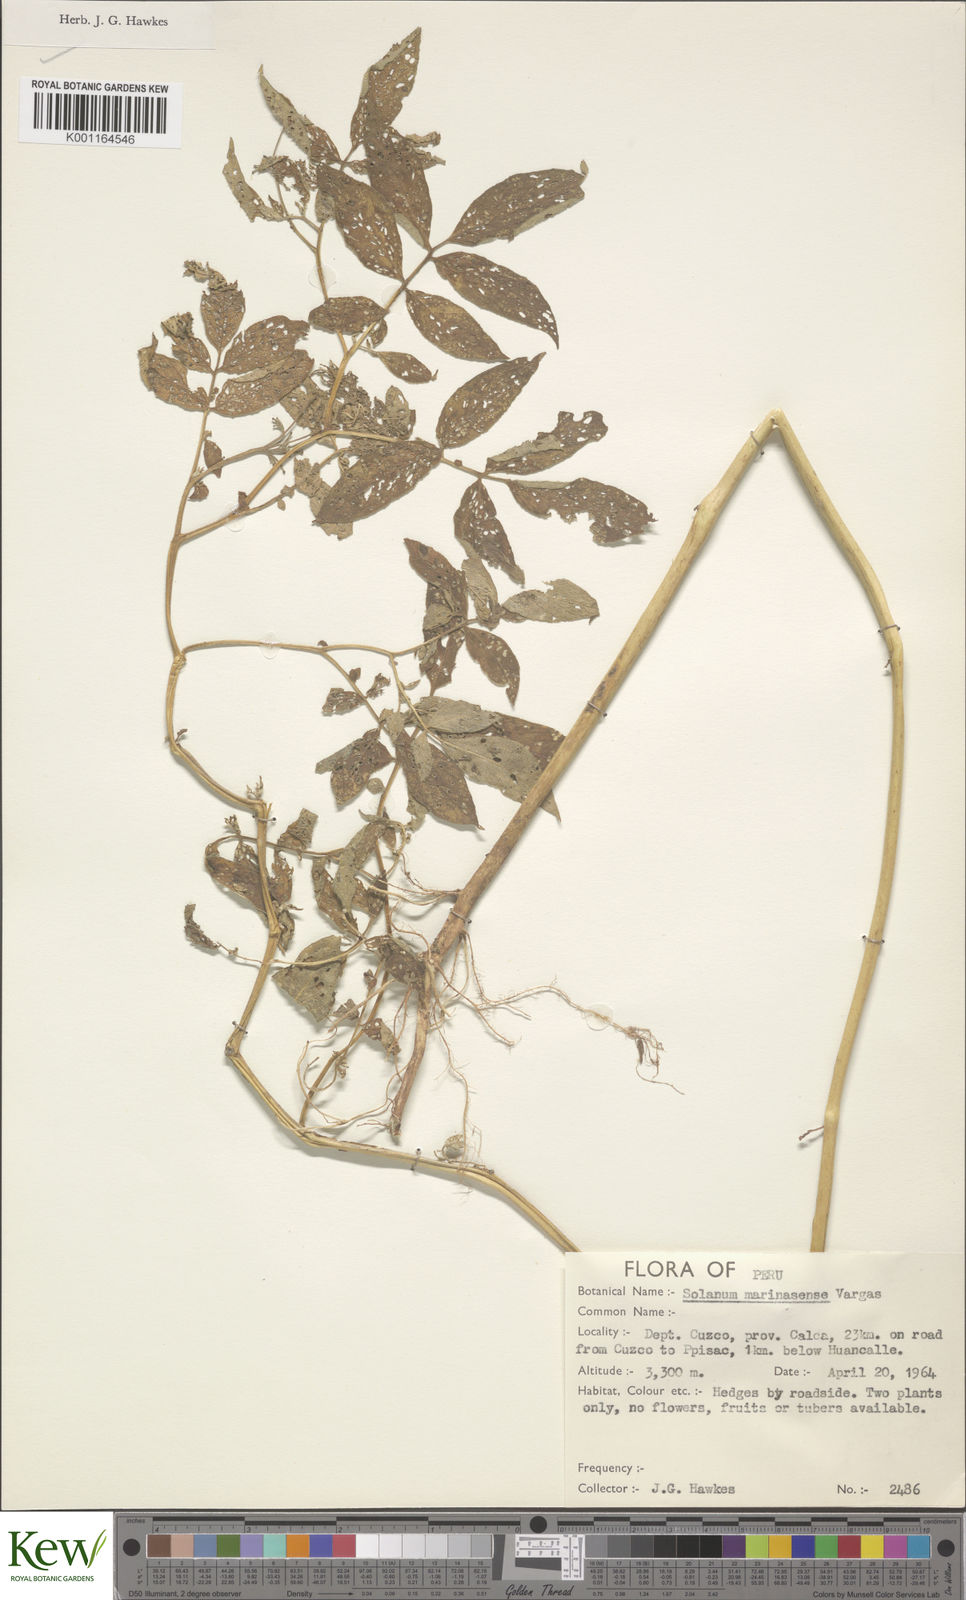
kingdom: Plantae
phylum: Tracheophyta
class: Magnoliopsida
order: Solanales
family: Solanaceae
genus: Solanum
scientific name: Solanum candolleanum
